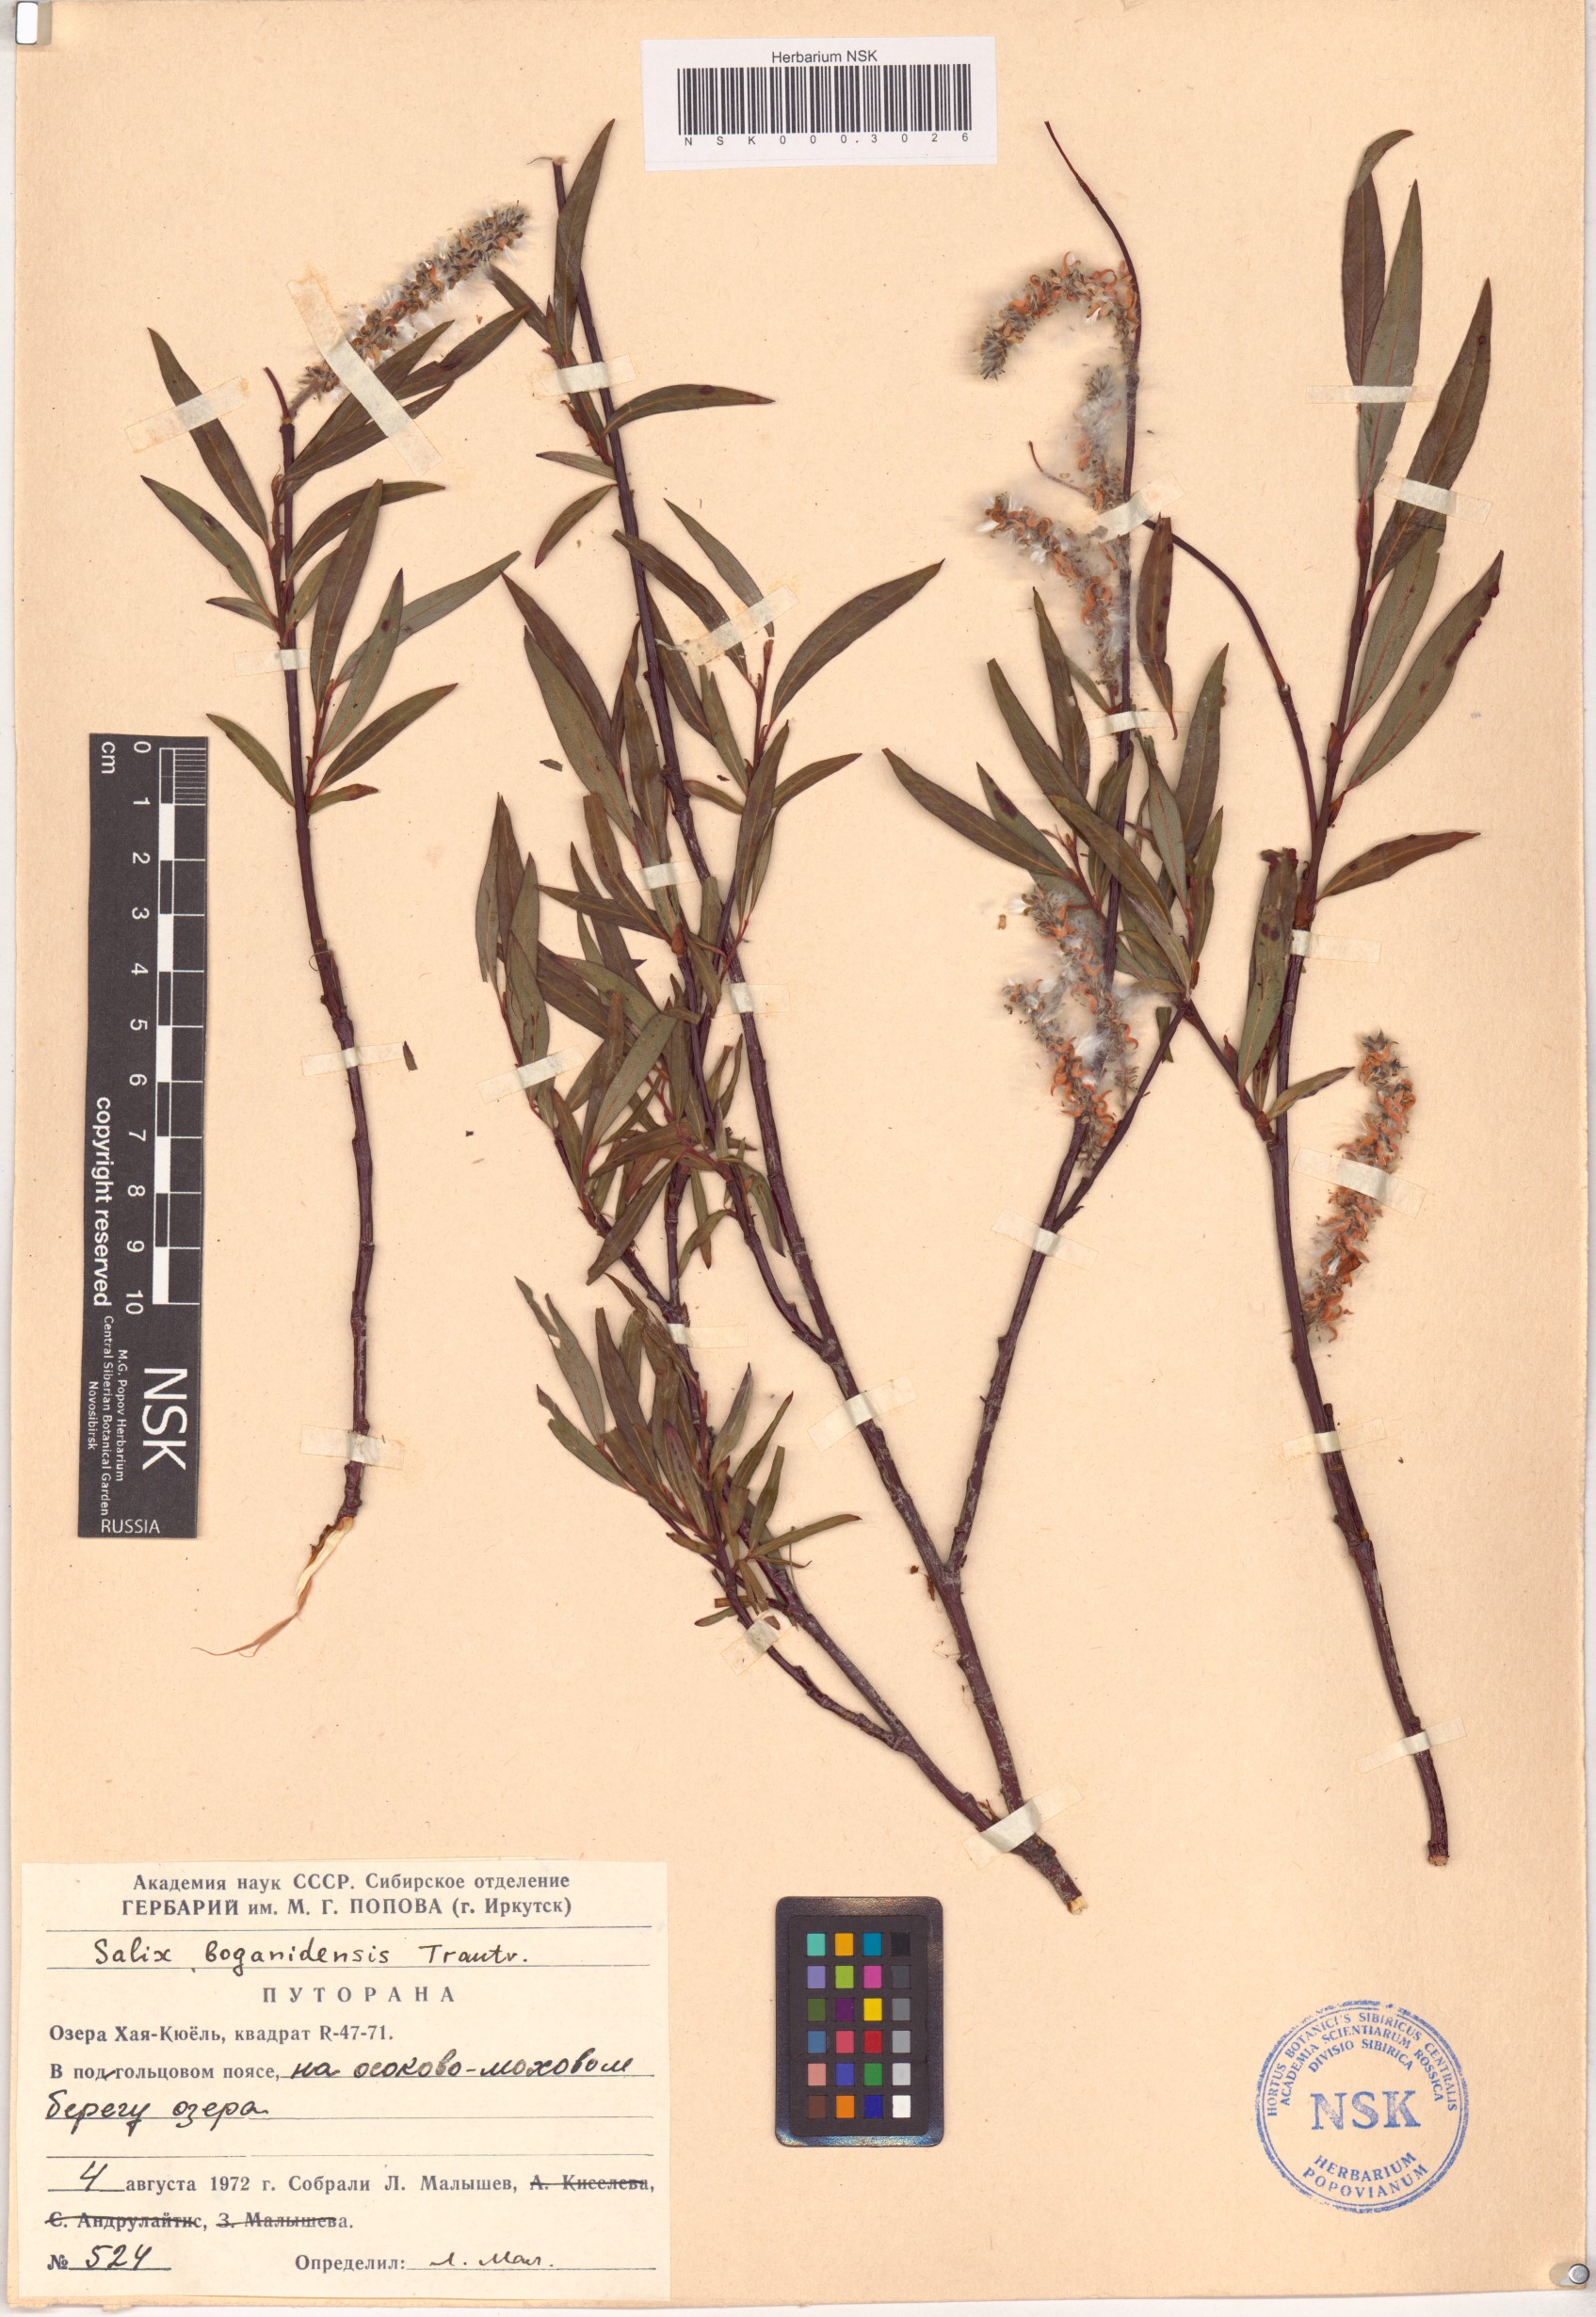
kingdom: Plantae
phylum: Tracheophyta
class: Magnoliopsida
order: Malpighiales
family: Salicaceae
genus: Salix
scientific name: Salix boganidensis
